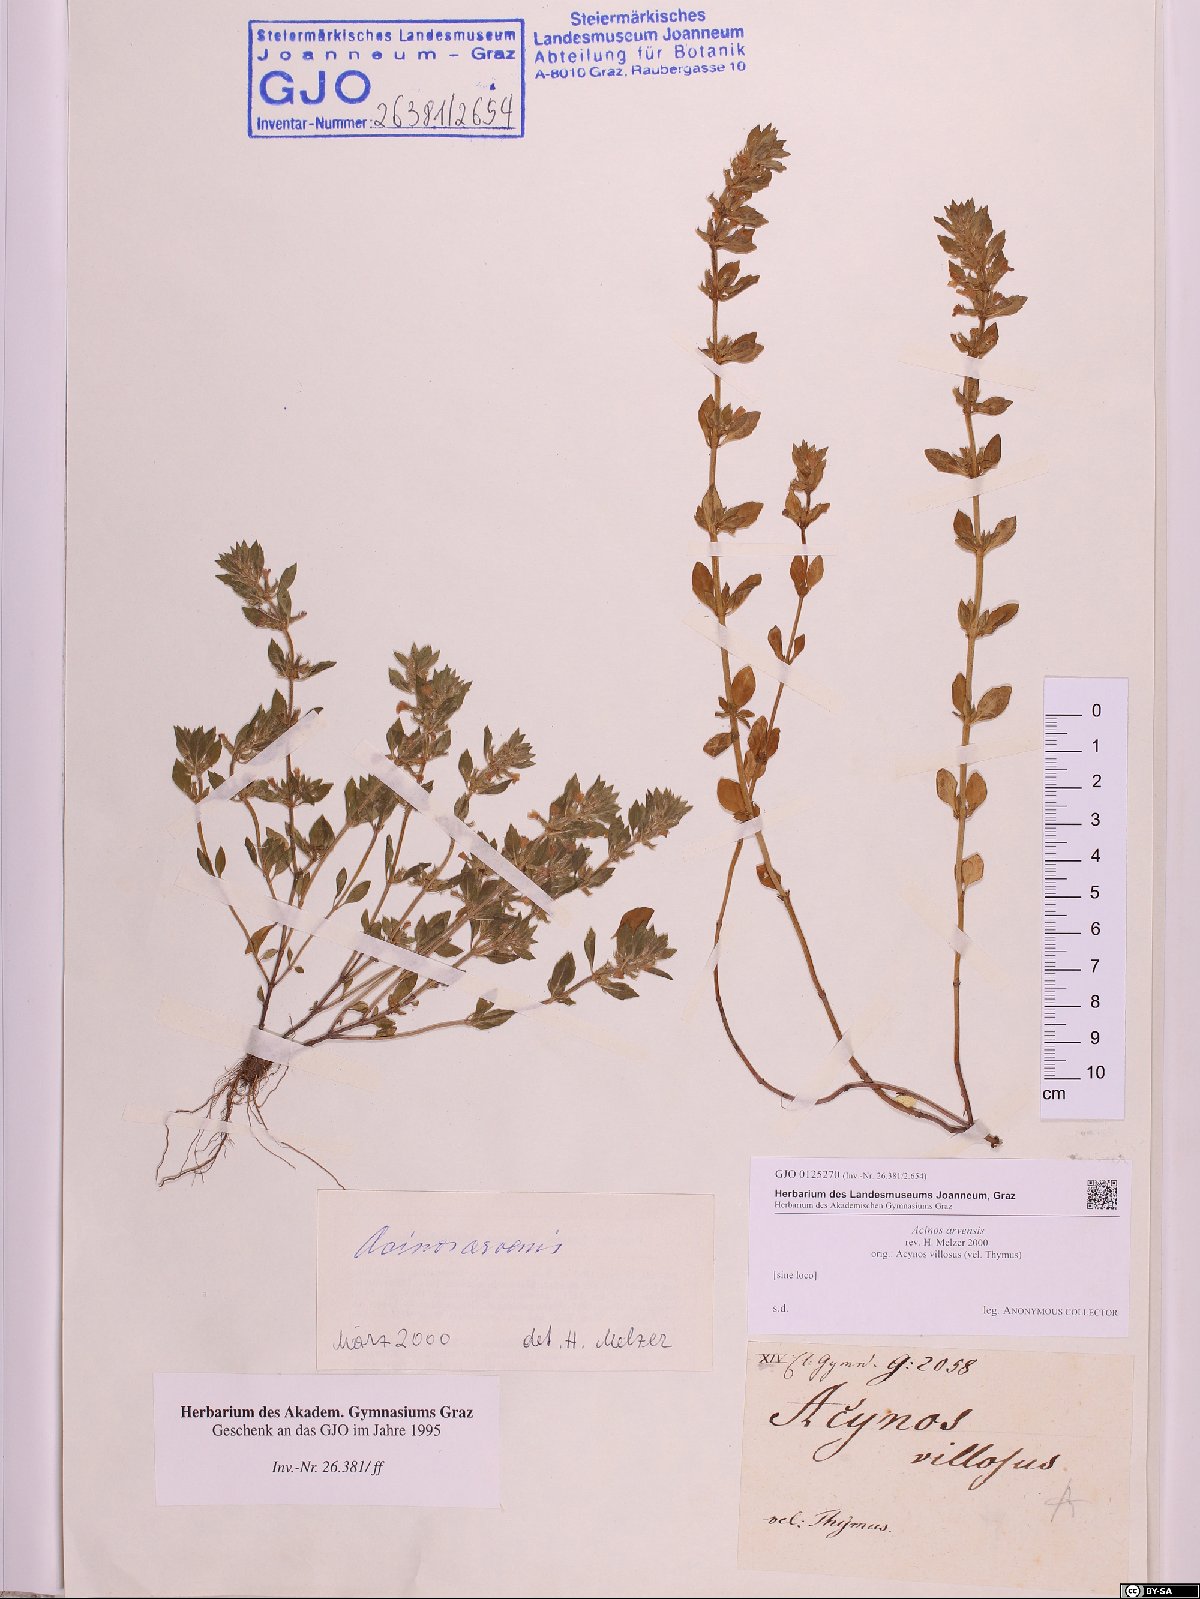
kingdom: Plantae
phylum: Tracheophyta
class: Magnoliopsida
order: Lamiales
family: Lamiaceae
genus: Clinopodium
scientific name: Clinopodium acinos
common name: Basil thyme
